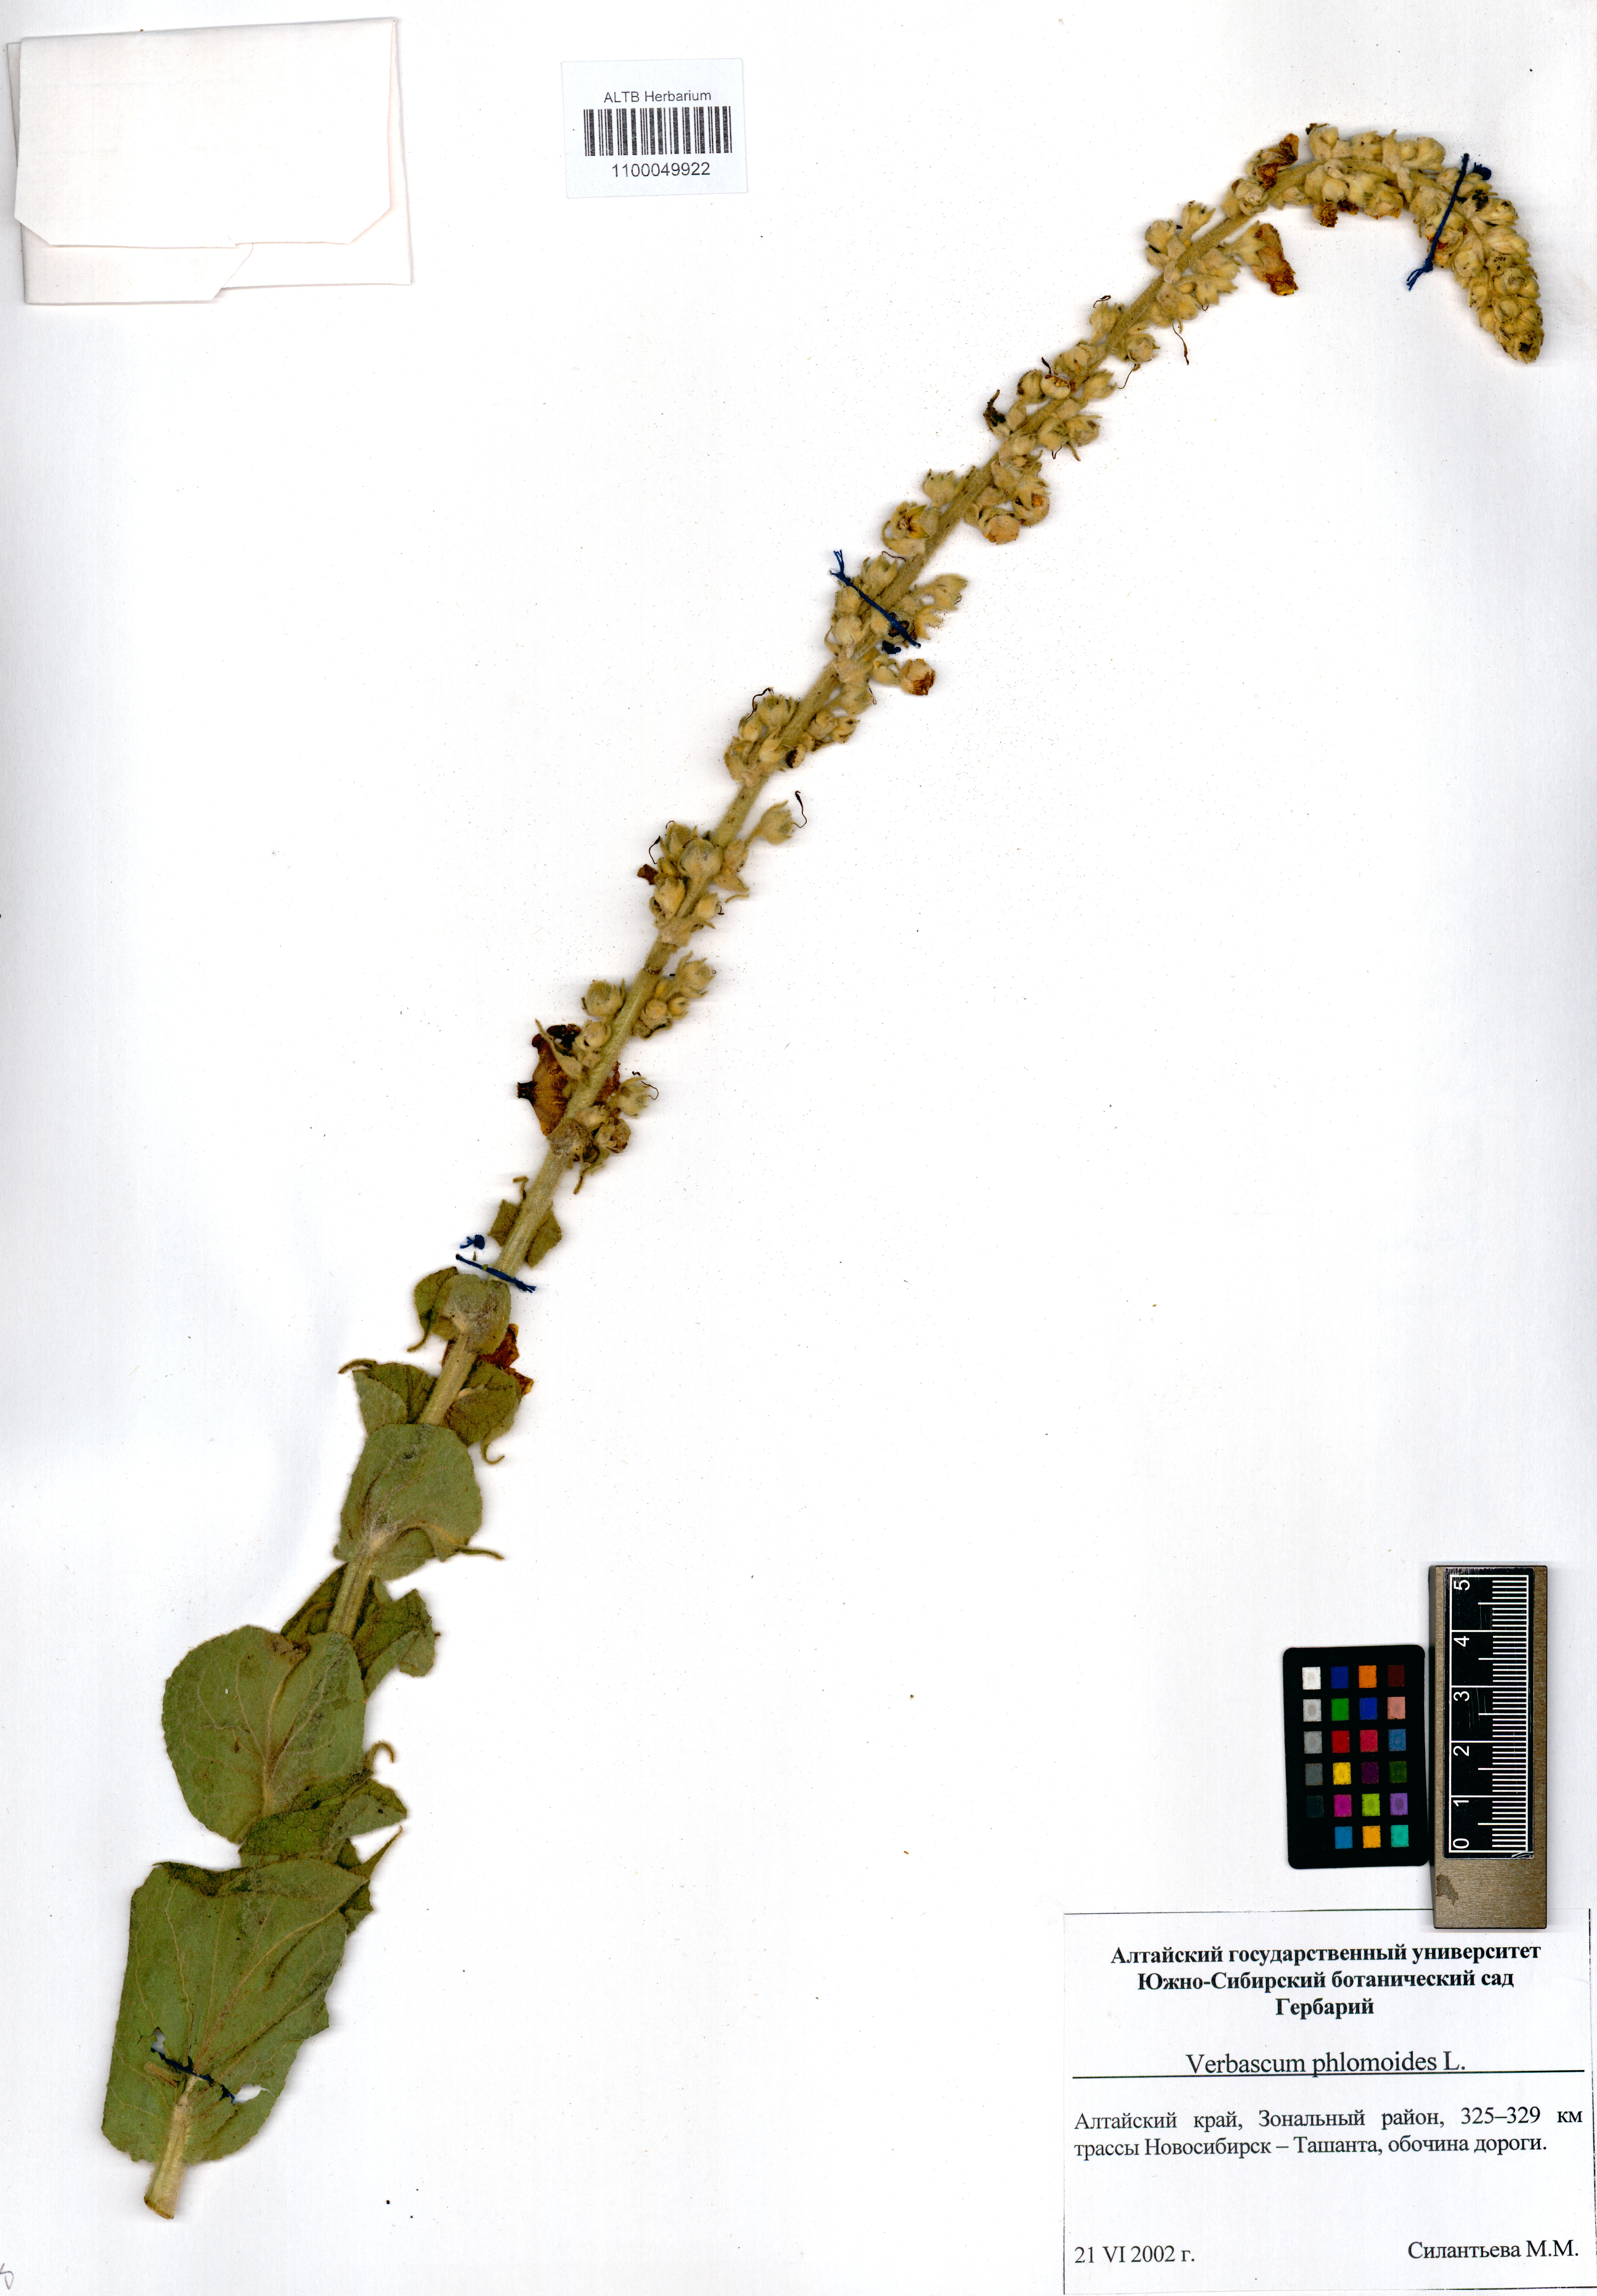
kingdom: Plantae
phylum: Tracheophyta
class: Magnoliopsida
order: Lamiales
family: Scrophulariaceae
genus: Verbascum
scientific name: Verbascum phlomoides
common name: Orange mullein
